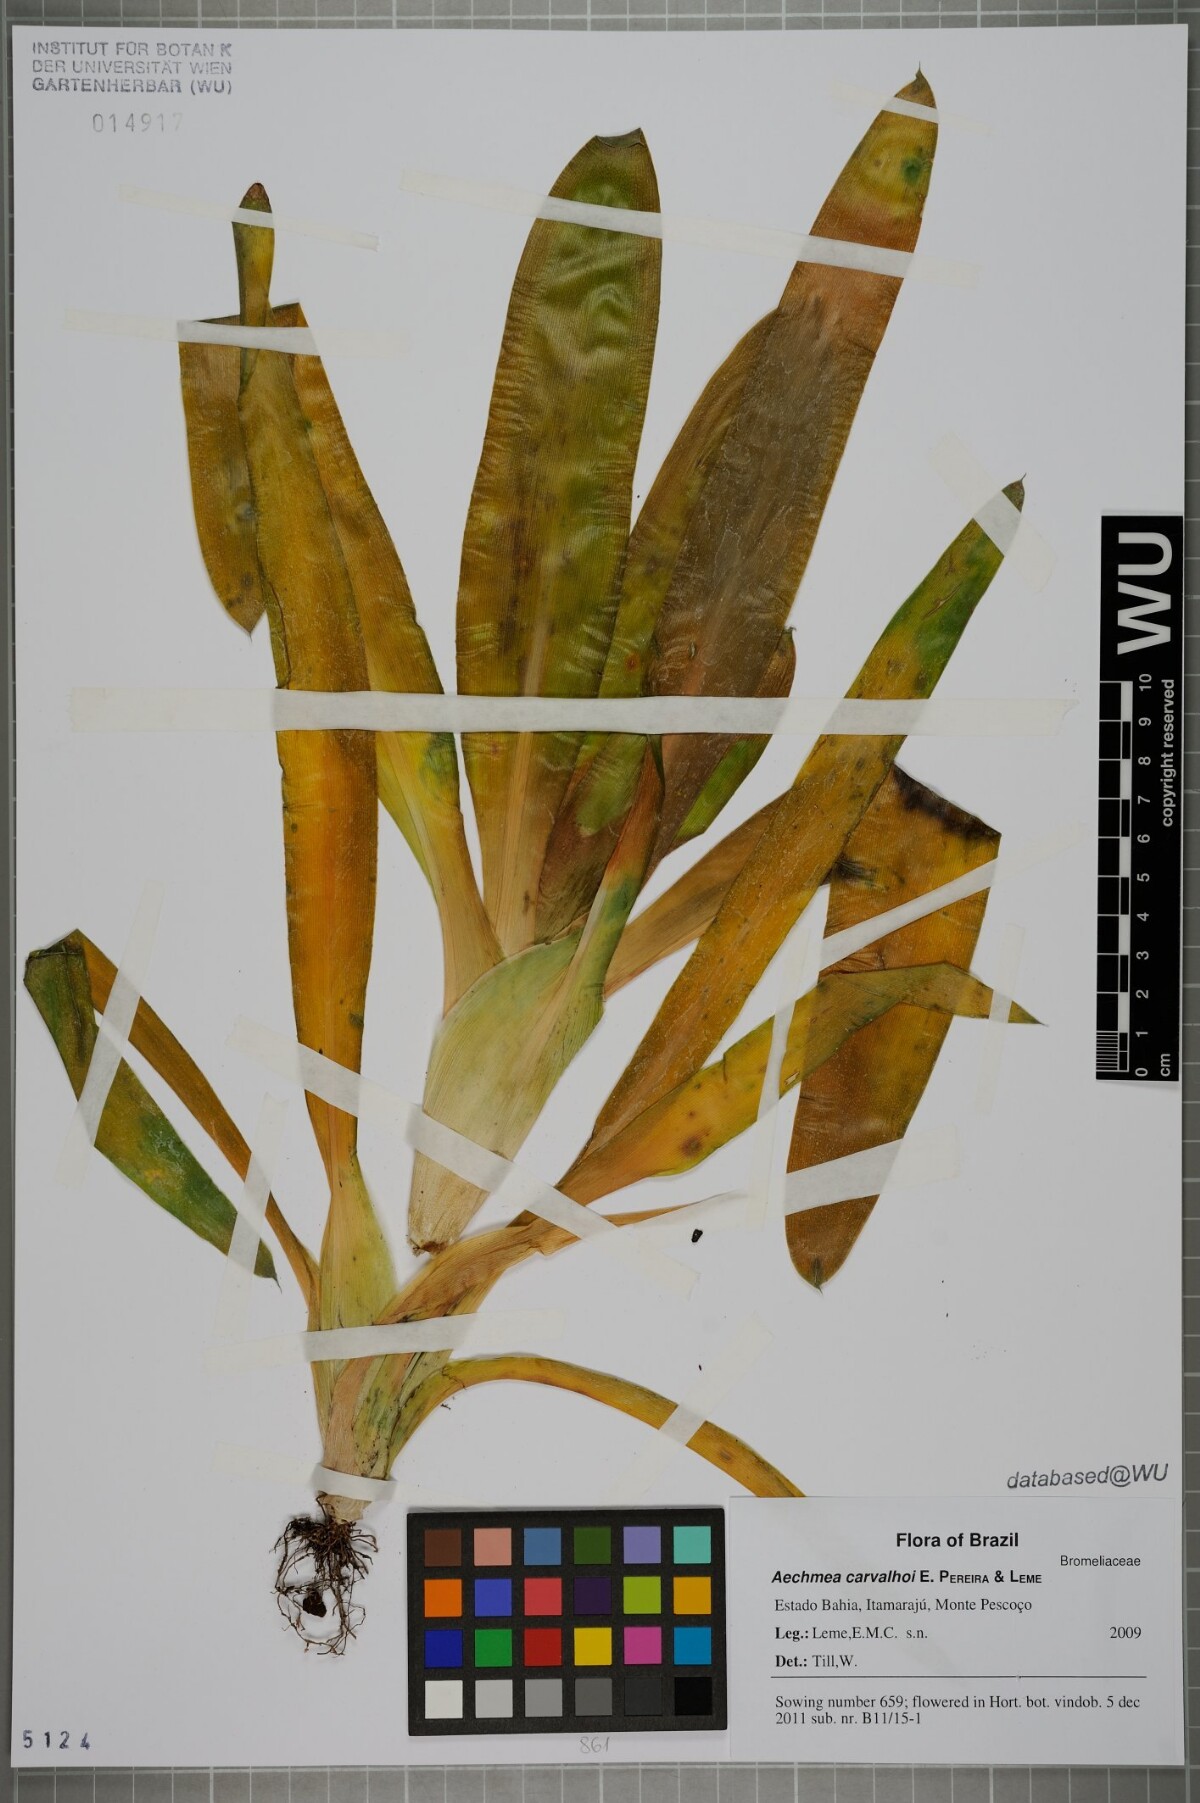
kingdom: Plantae
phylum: Tracheophyta
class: Liliopsida
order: Poales
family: Bromeliaceae
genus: Aechmea
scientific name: Aechmea carvalhoi
